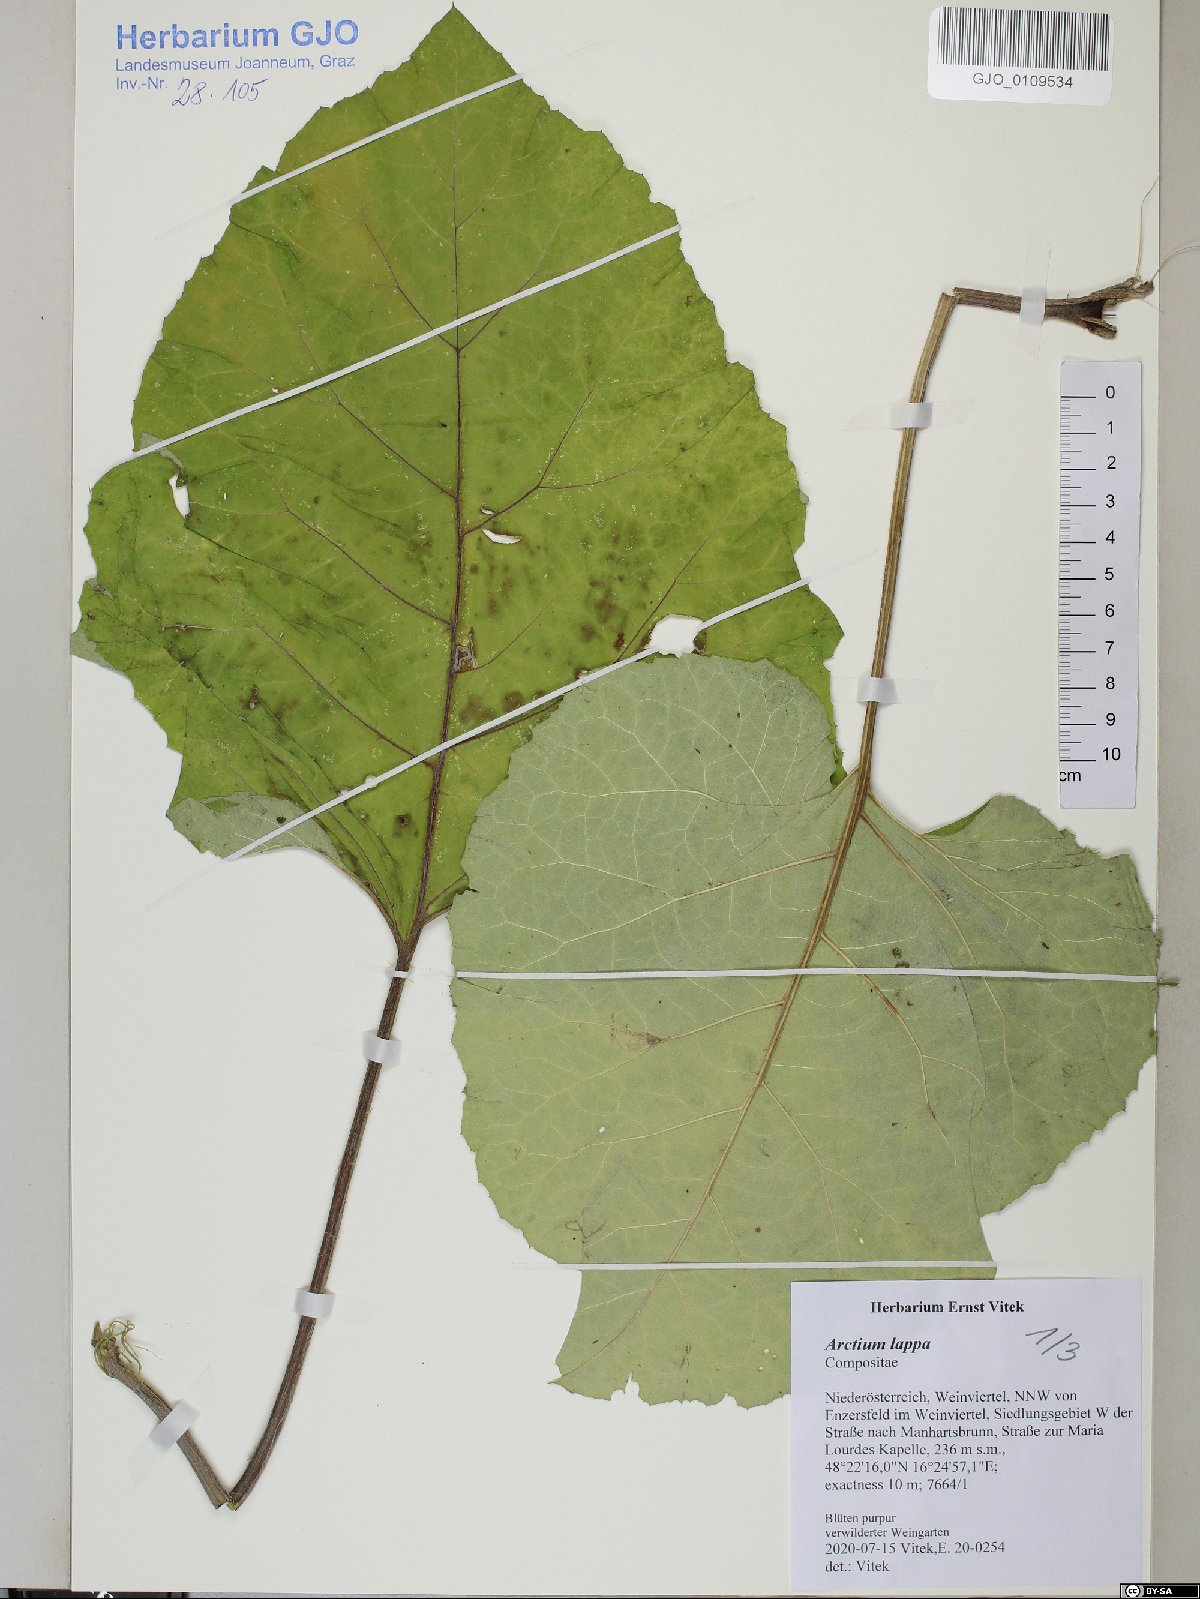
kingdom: Plantae
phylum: Tracheophyta
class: Magnoliopsida
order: Asterales
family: Asteraceae
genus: Arctium
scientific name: Arctium lappa
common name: Greater burdock
